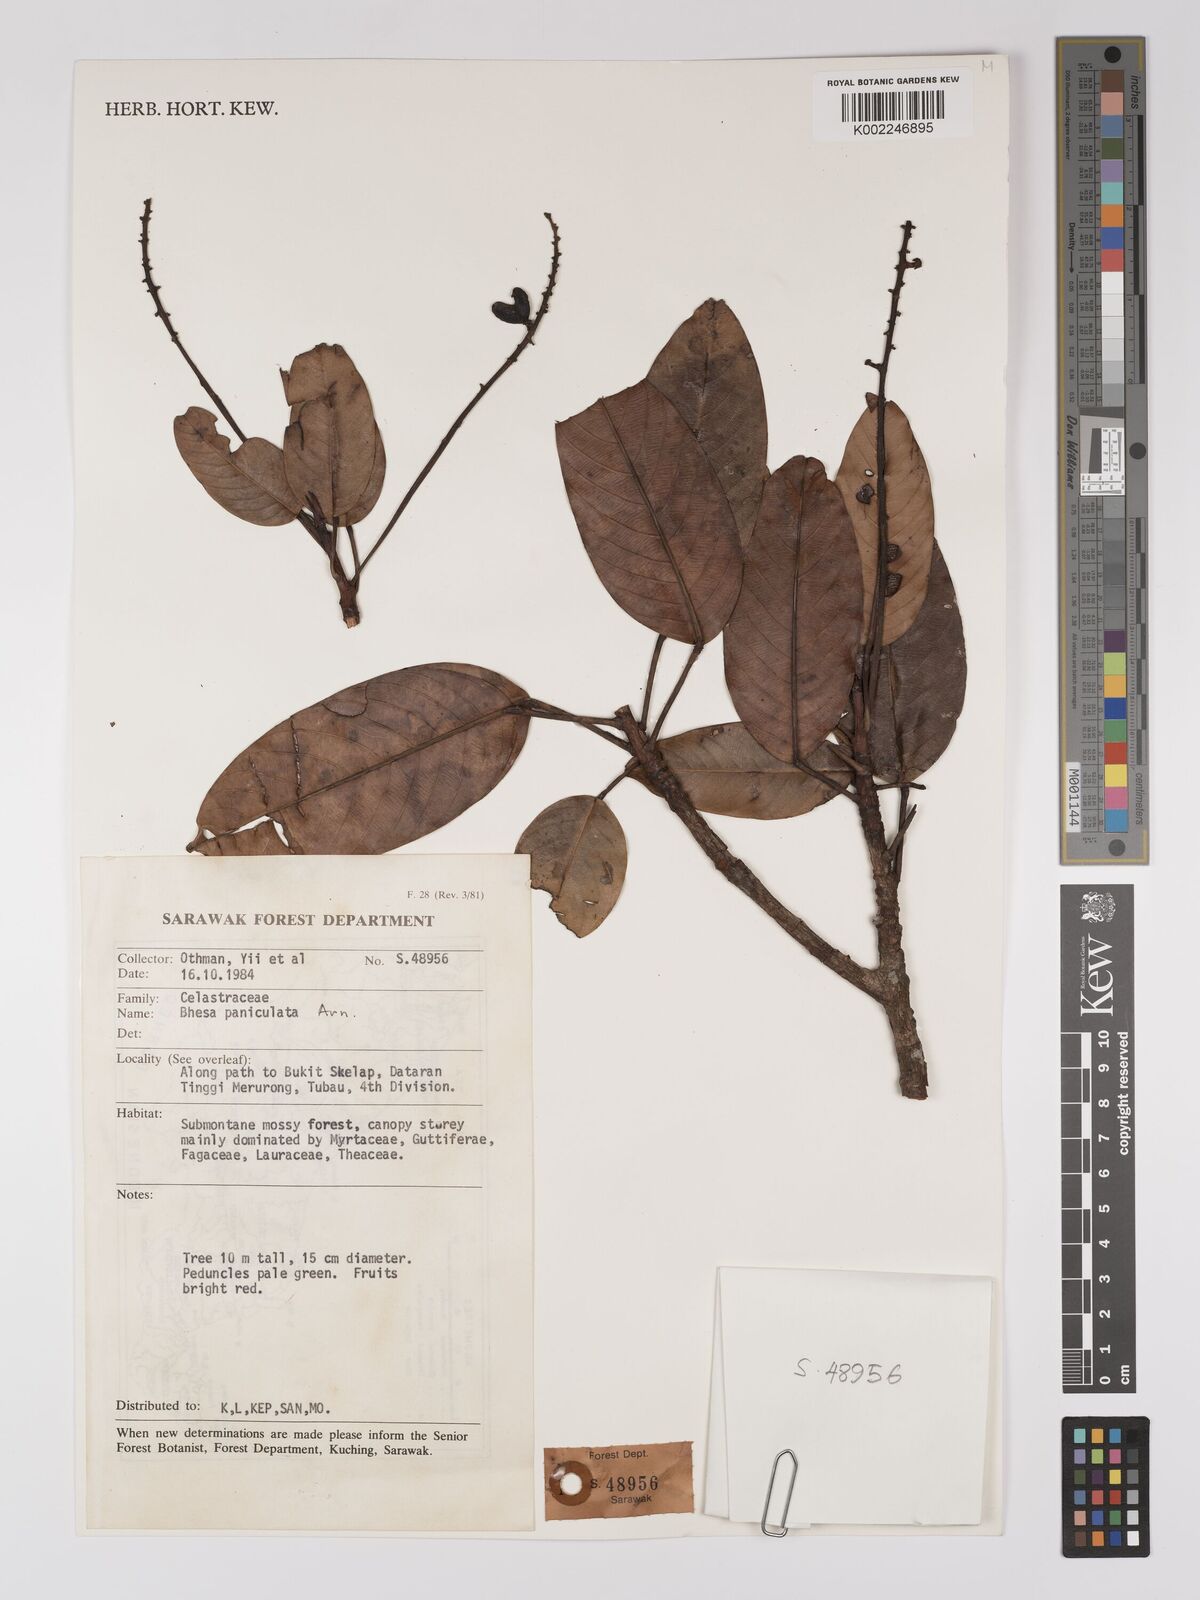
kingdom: Plantae
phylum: Tracheophyta
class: Magnoliopsida
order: Malpighiales
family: Centroplacaceae
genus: Bhesa
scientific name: Bhesa paniculata
